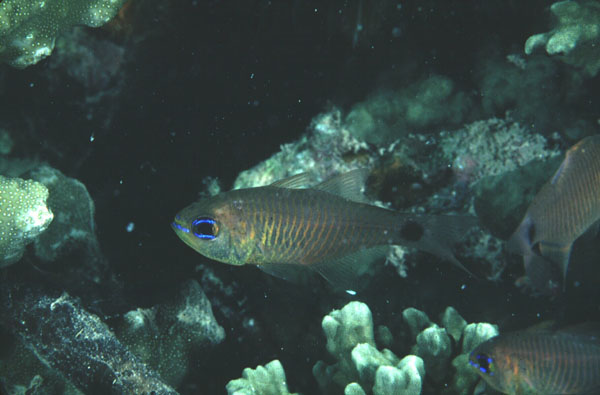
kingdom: Animalia
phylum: Chordata
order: Perciformes
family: Apogonidae
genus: Taeniamia
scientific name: Taeniamia fucata
